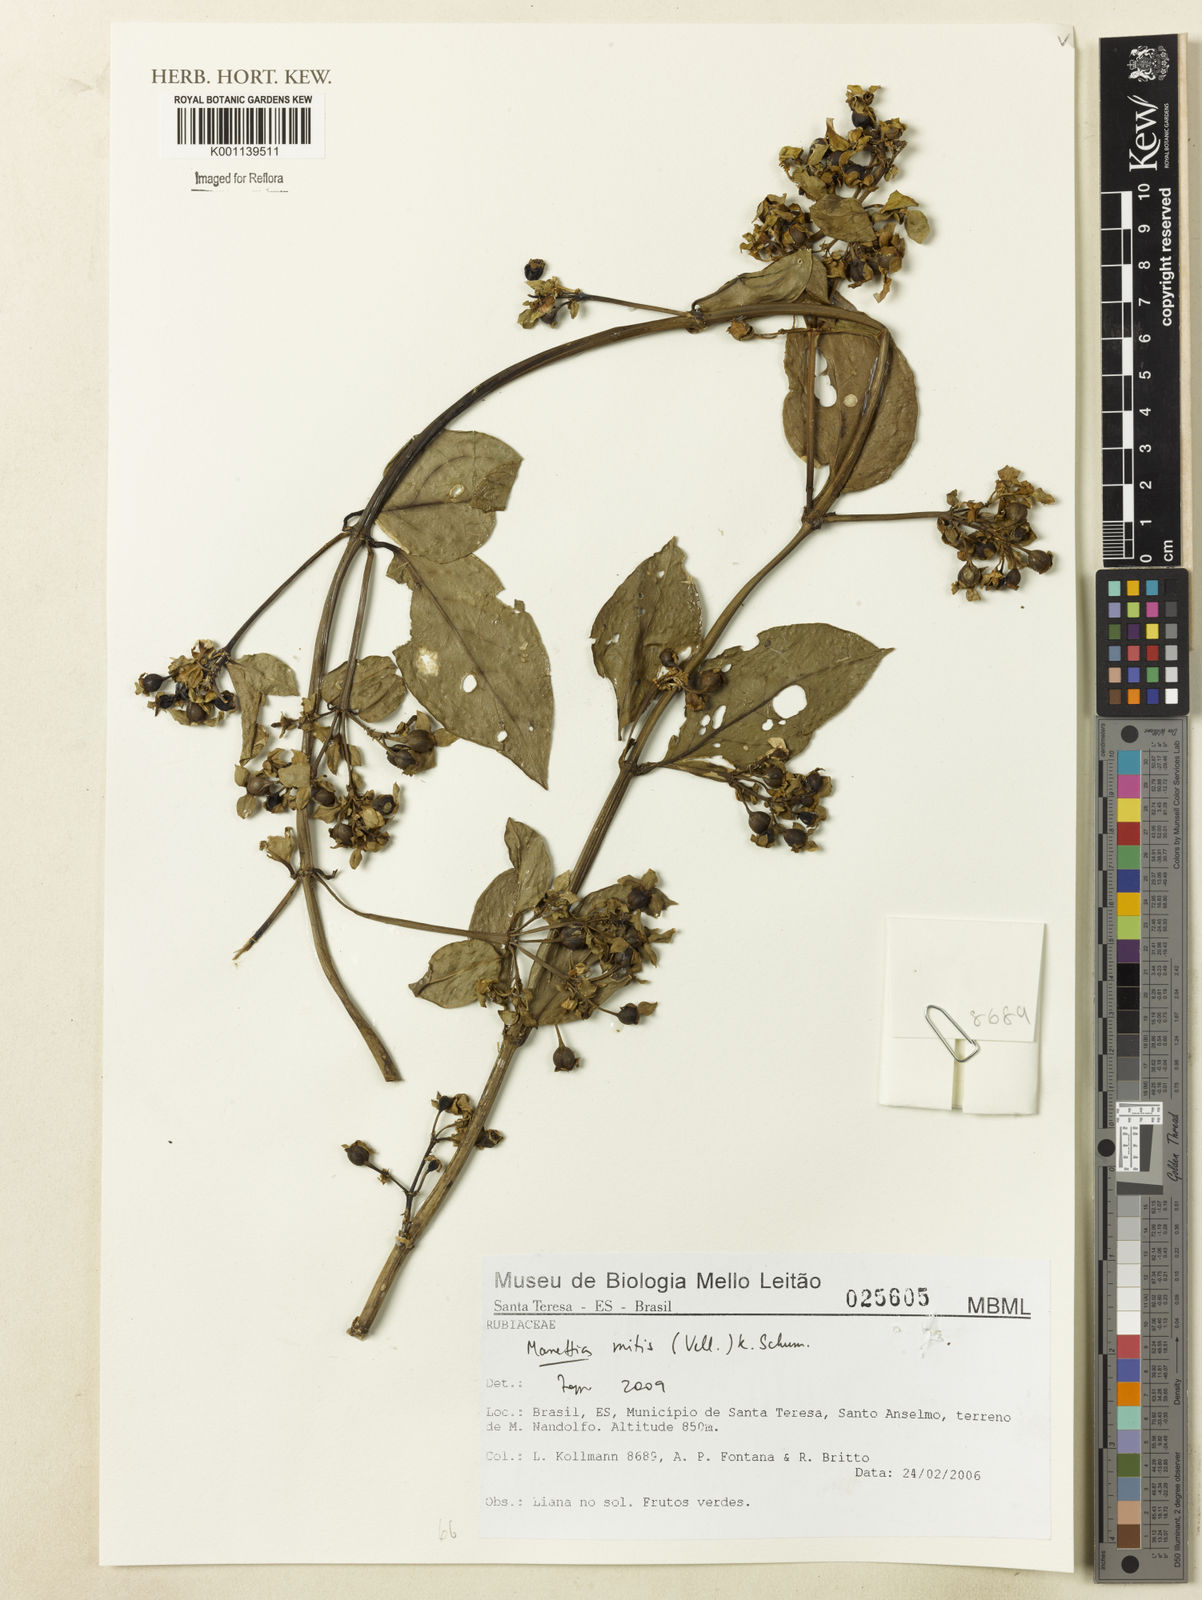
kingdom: Plantae
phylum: Tracheophyta
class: Magnoliopsida
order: Gentianales
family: Rubiaceae
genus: Manettia
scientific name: Manettia mitis
